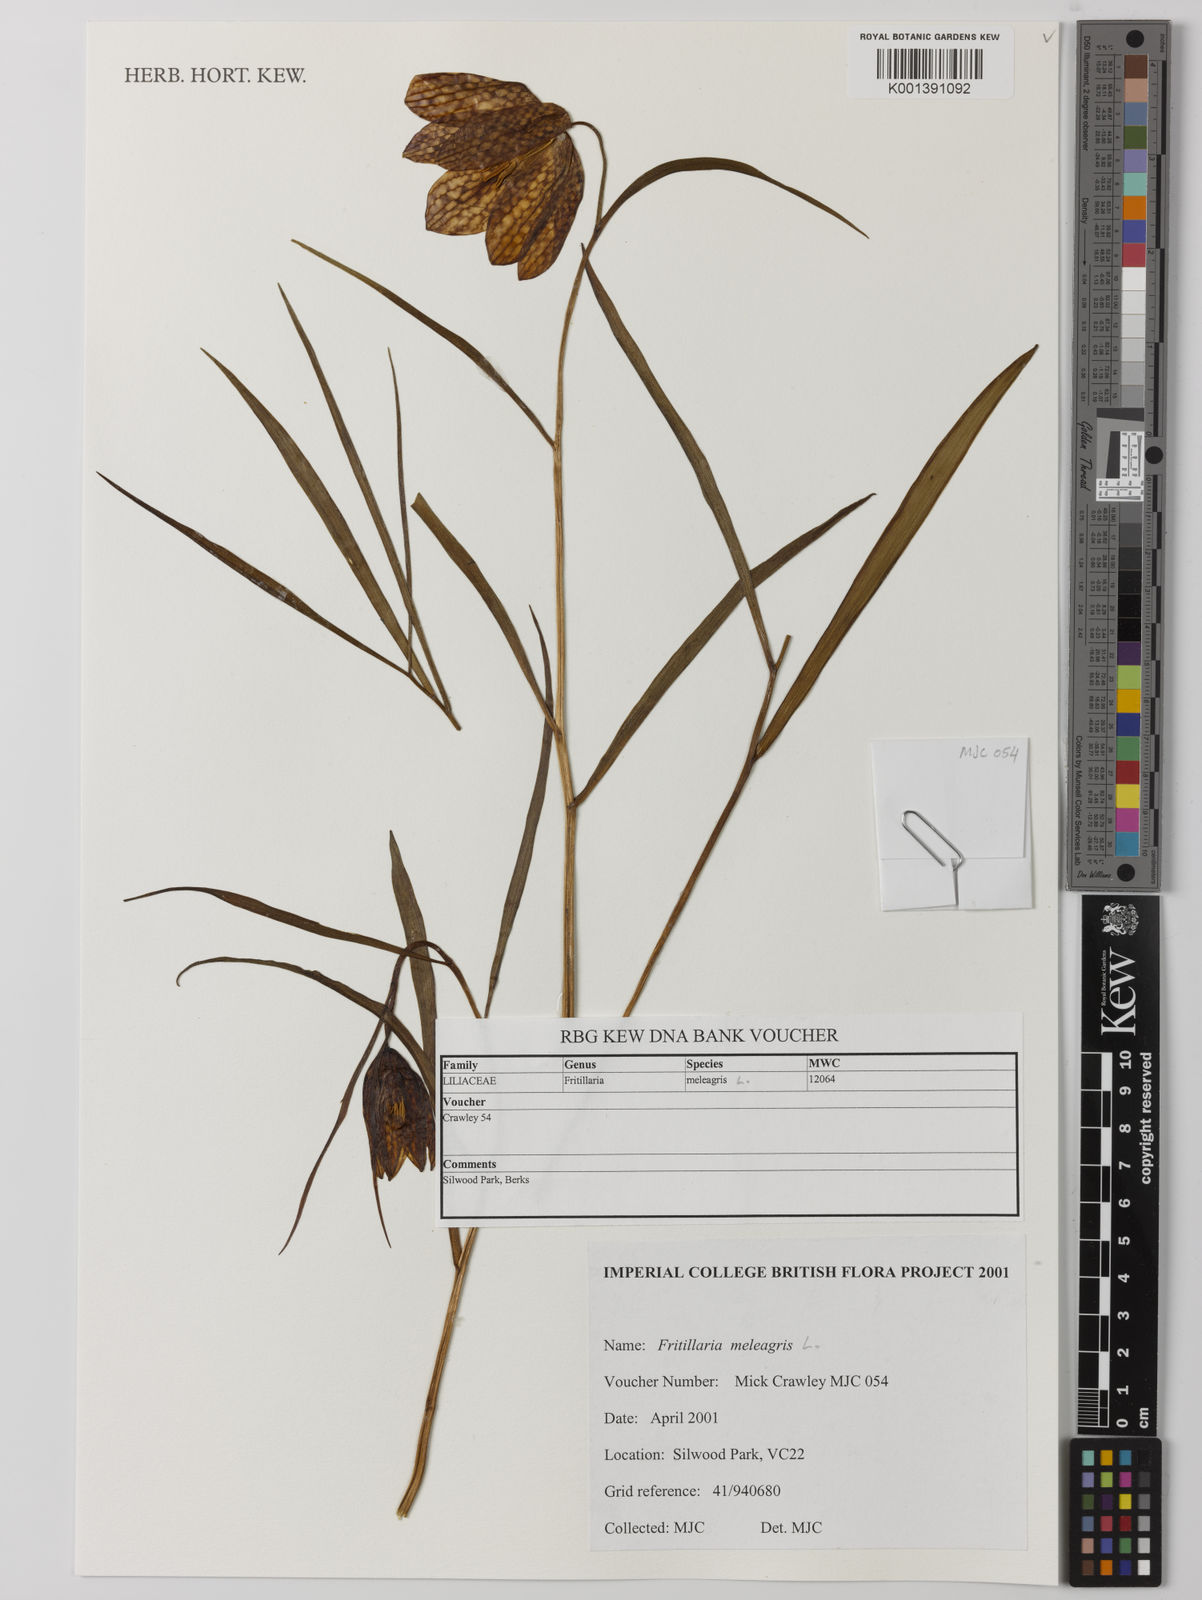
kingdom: Plantae
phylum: Tracheophyta
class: Liliopsida
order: Liliales
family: Liliaceae
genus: Fritillaria
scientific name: Fritillaria meleagris
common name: Fritillary
